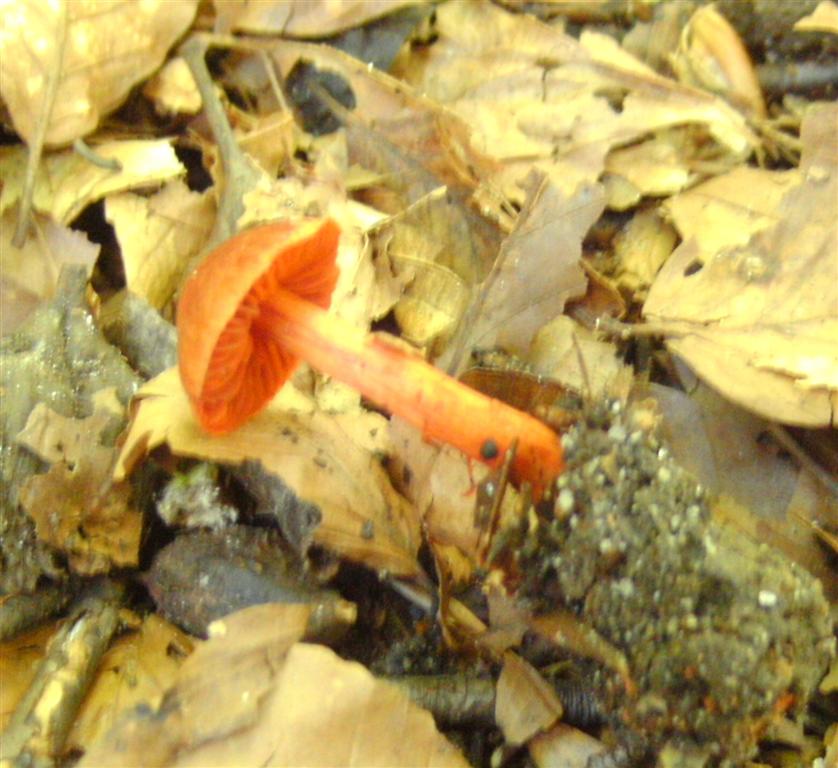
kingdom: Fungi
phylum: Basidiomycota
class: Agaricomycetes
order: Agaricales
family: Cortinariaceae
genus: Cortinarius
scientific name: Cortinarius cinnabarinus
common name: cinnober-slørhat
